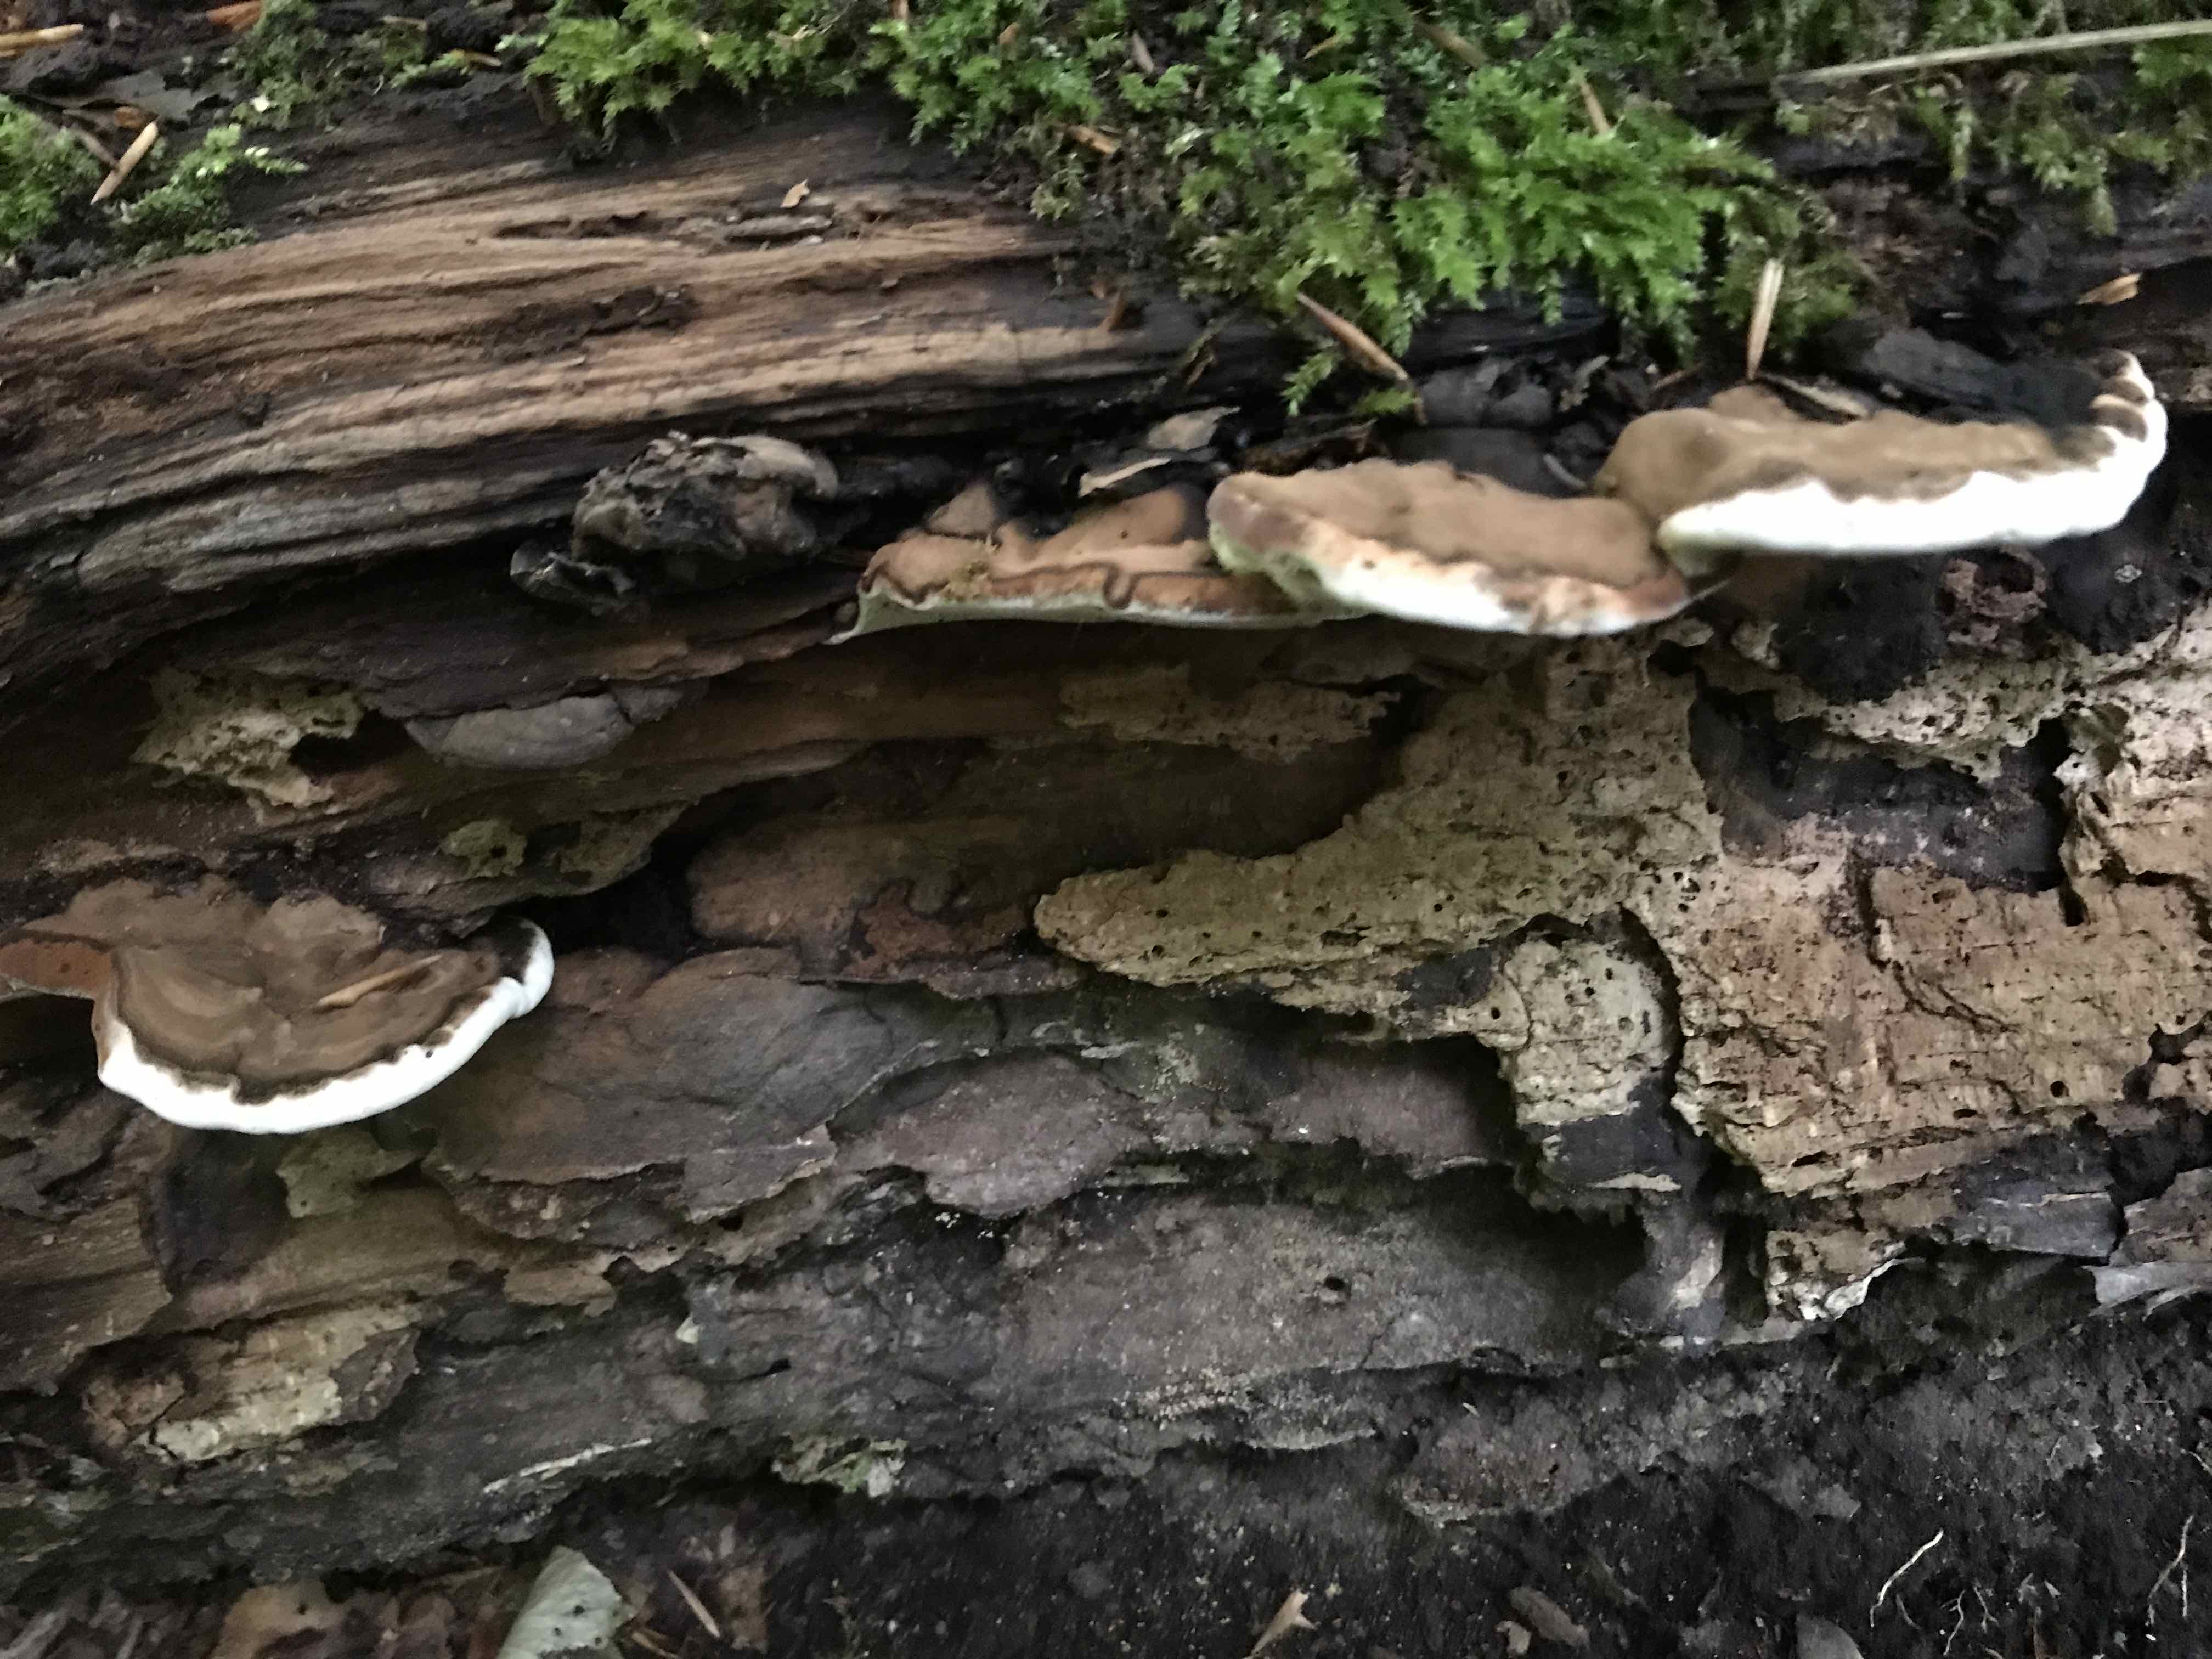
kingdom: Fungi
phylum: Basidiomycota
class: Agaricomycetes
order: Polyporales
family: Polyporaceae
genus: Ganoderma
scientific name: Ganoderma applanatum
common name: flad lakporesvamp
